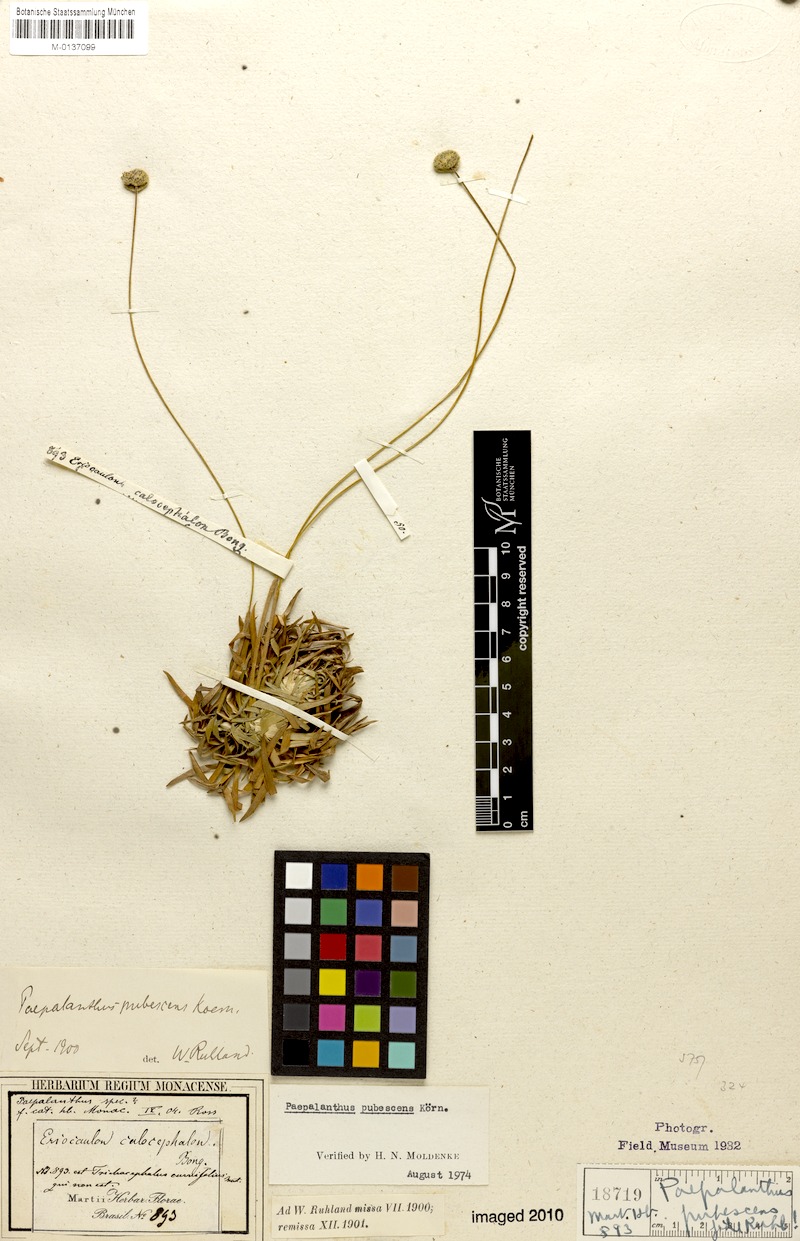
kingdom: Plantae
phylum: Tracheophyta
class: Liliopsida
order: Poales
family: Eriocaulaceae
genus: Paepalanthus
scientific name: Paepalanthus pubescens
